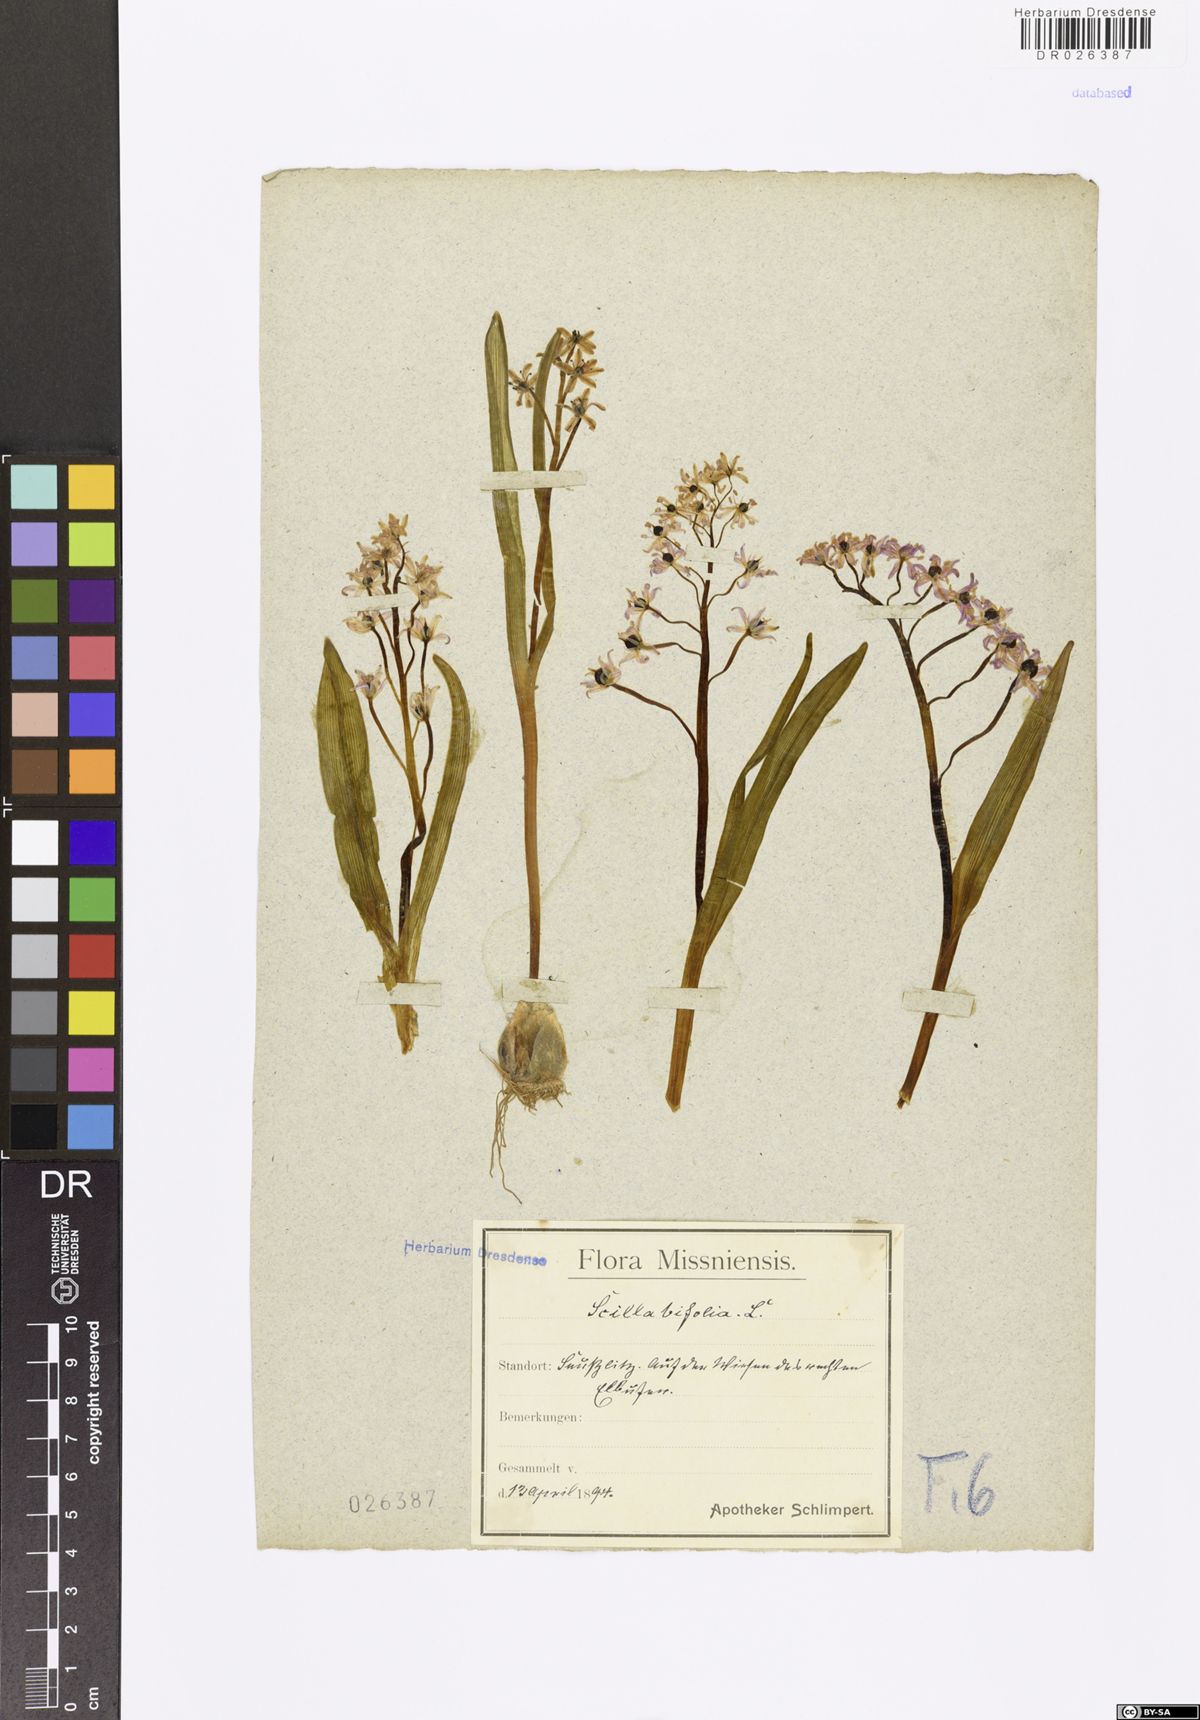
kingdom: Plantae
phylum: Tracheophyta
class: Liliopsida
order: Asparagales
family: Asparagaceae
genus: Scilla
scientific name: Scilla vindobonensis
